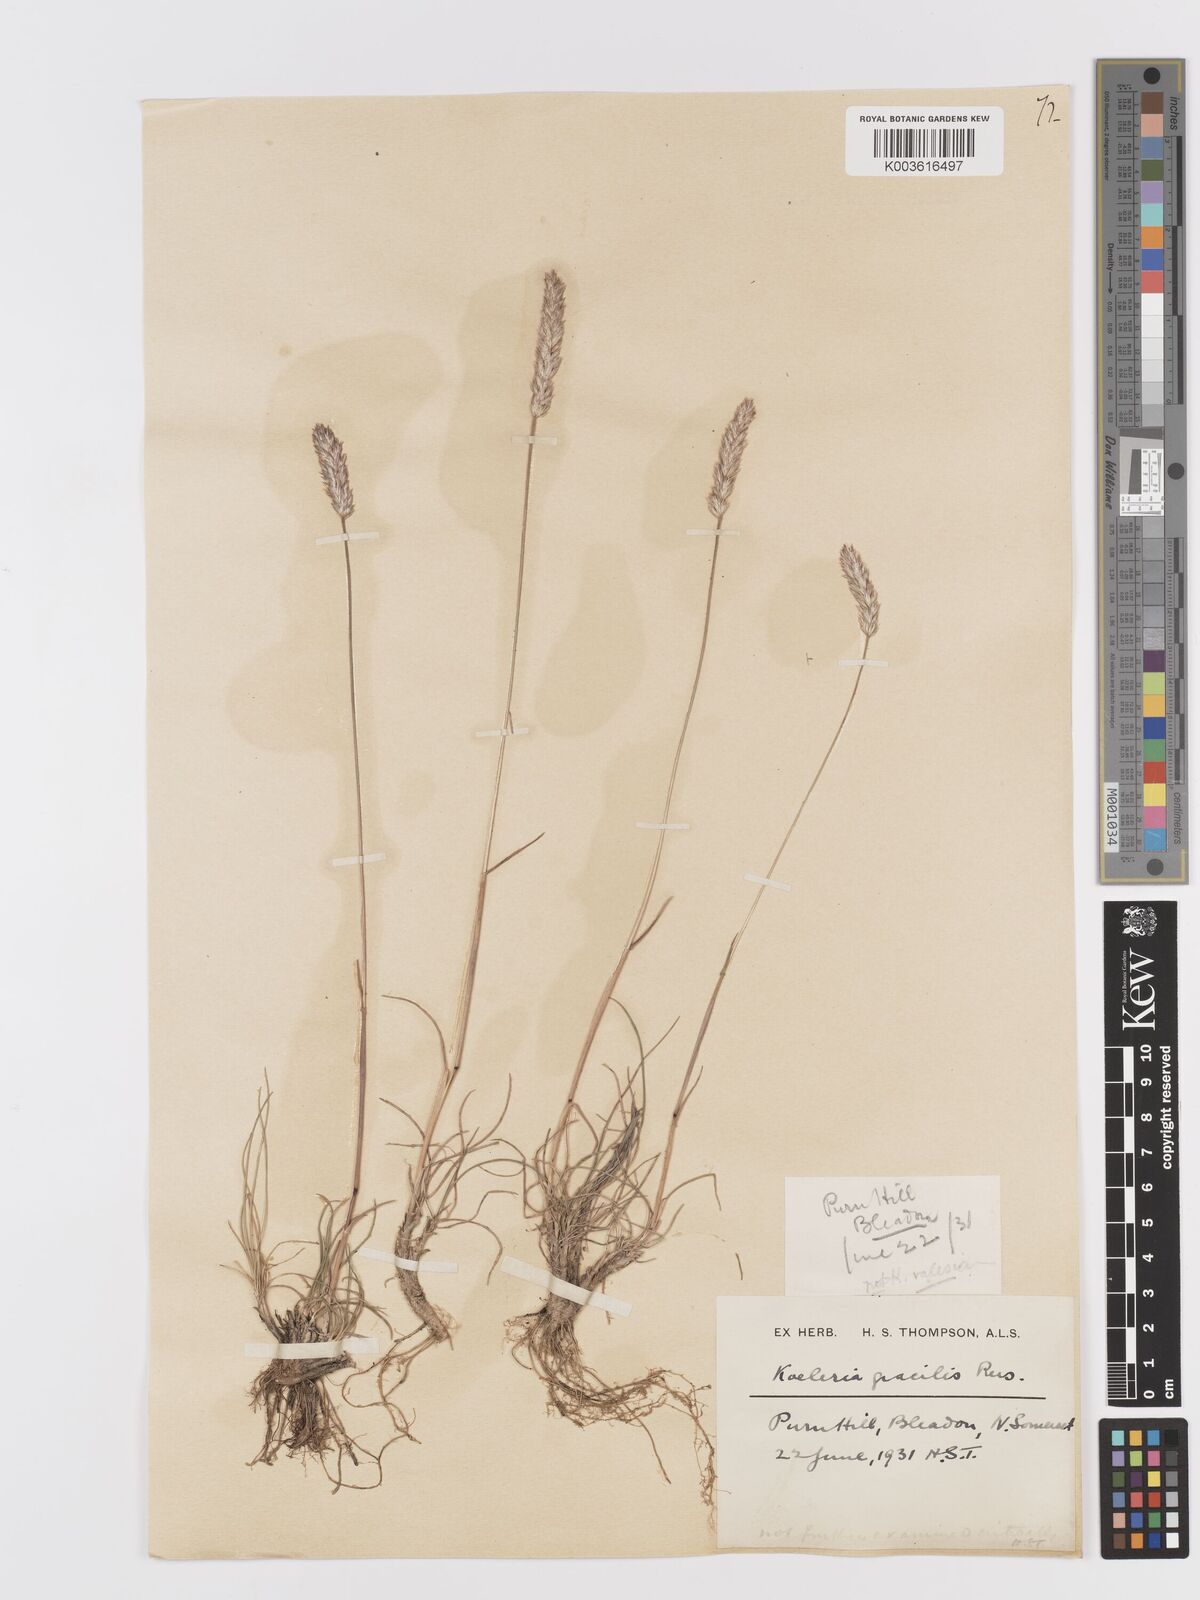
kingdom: Plantae
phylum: Tracheophyta
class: Liliopsida
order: Poales
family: Poaceae
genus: Koeleria
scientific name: Koeleria vallesiana
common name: Somerset hair-grass
